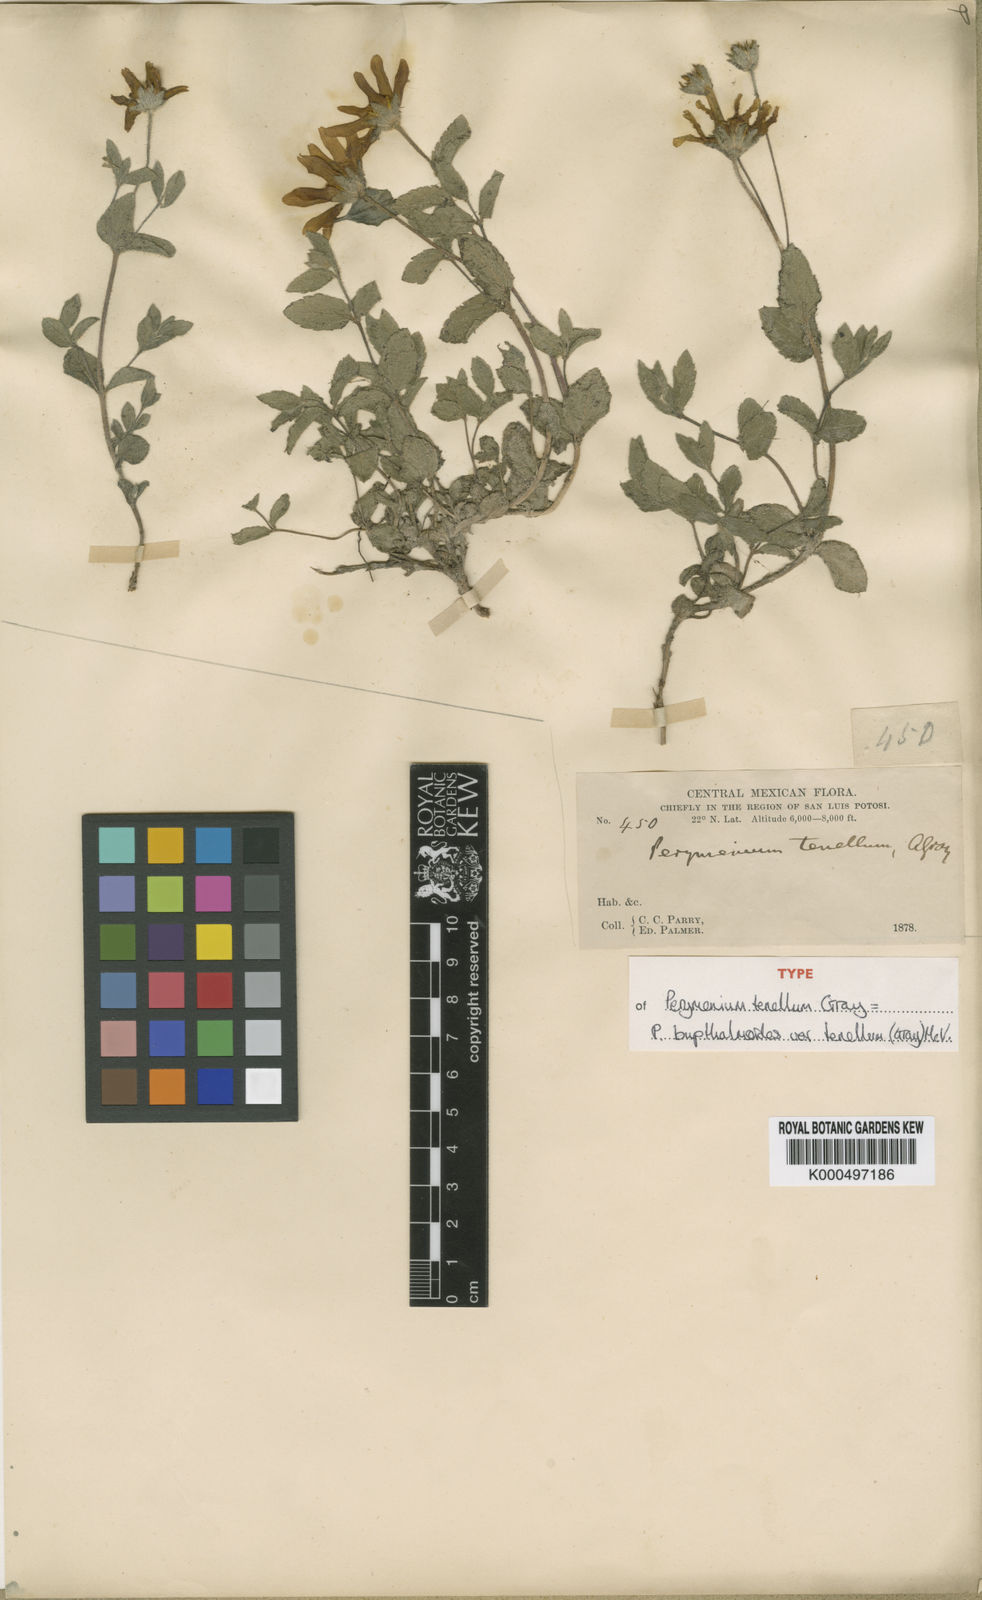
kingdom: Plantae
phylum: Tracheophyta
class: Magnoliopsida
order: Asterales
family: Asteraceae
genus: Perymenium
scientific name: Perymenium buphthalmoides
